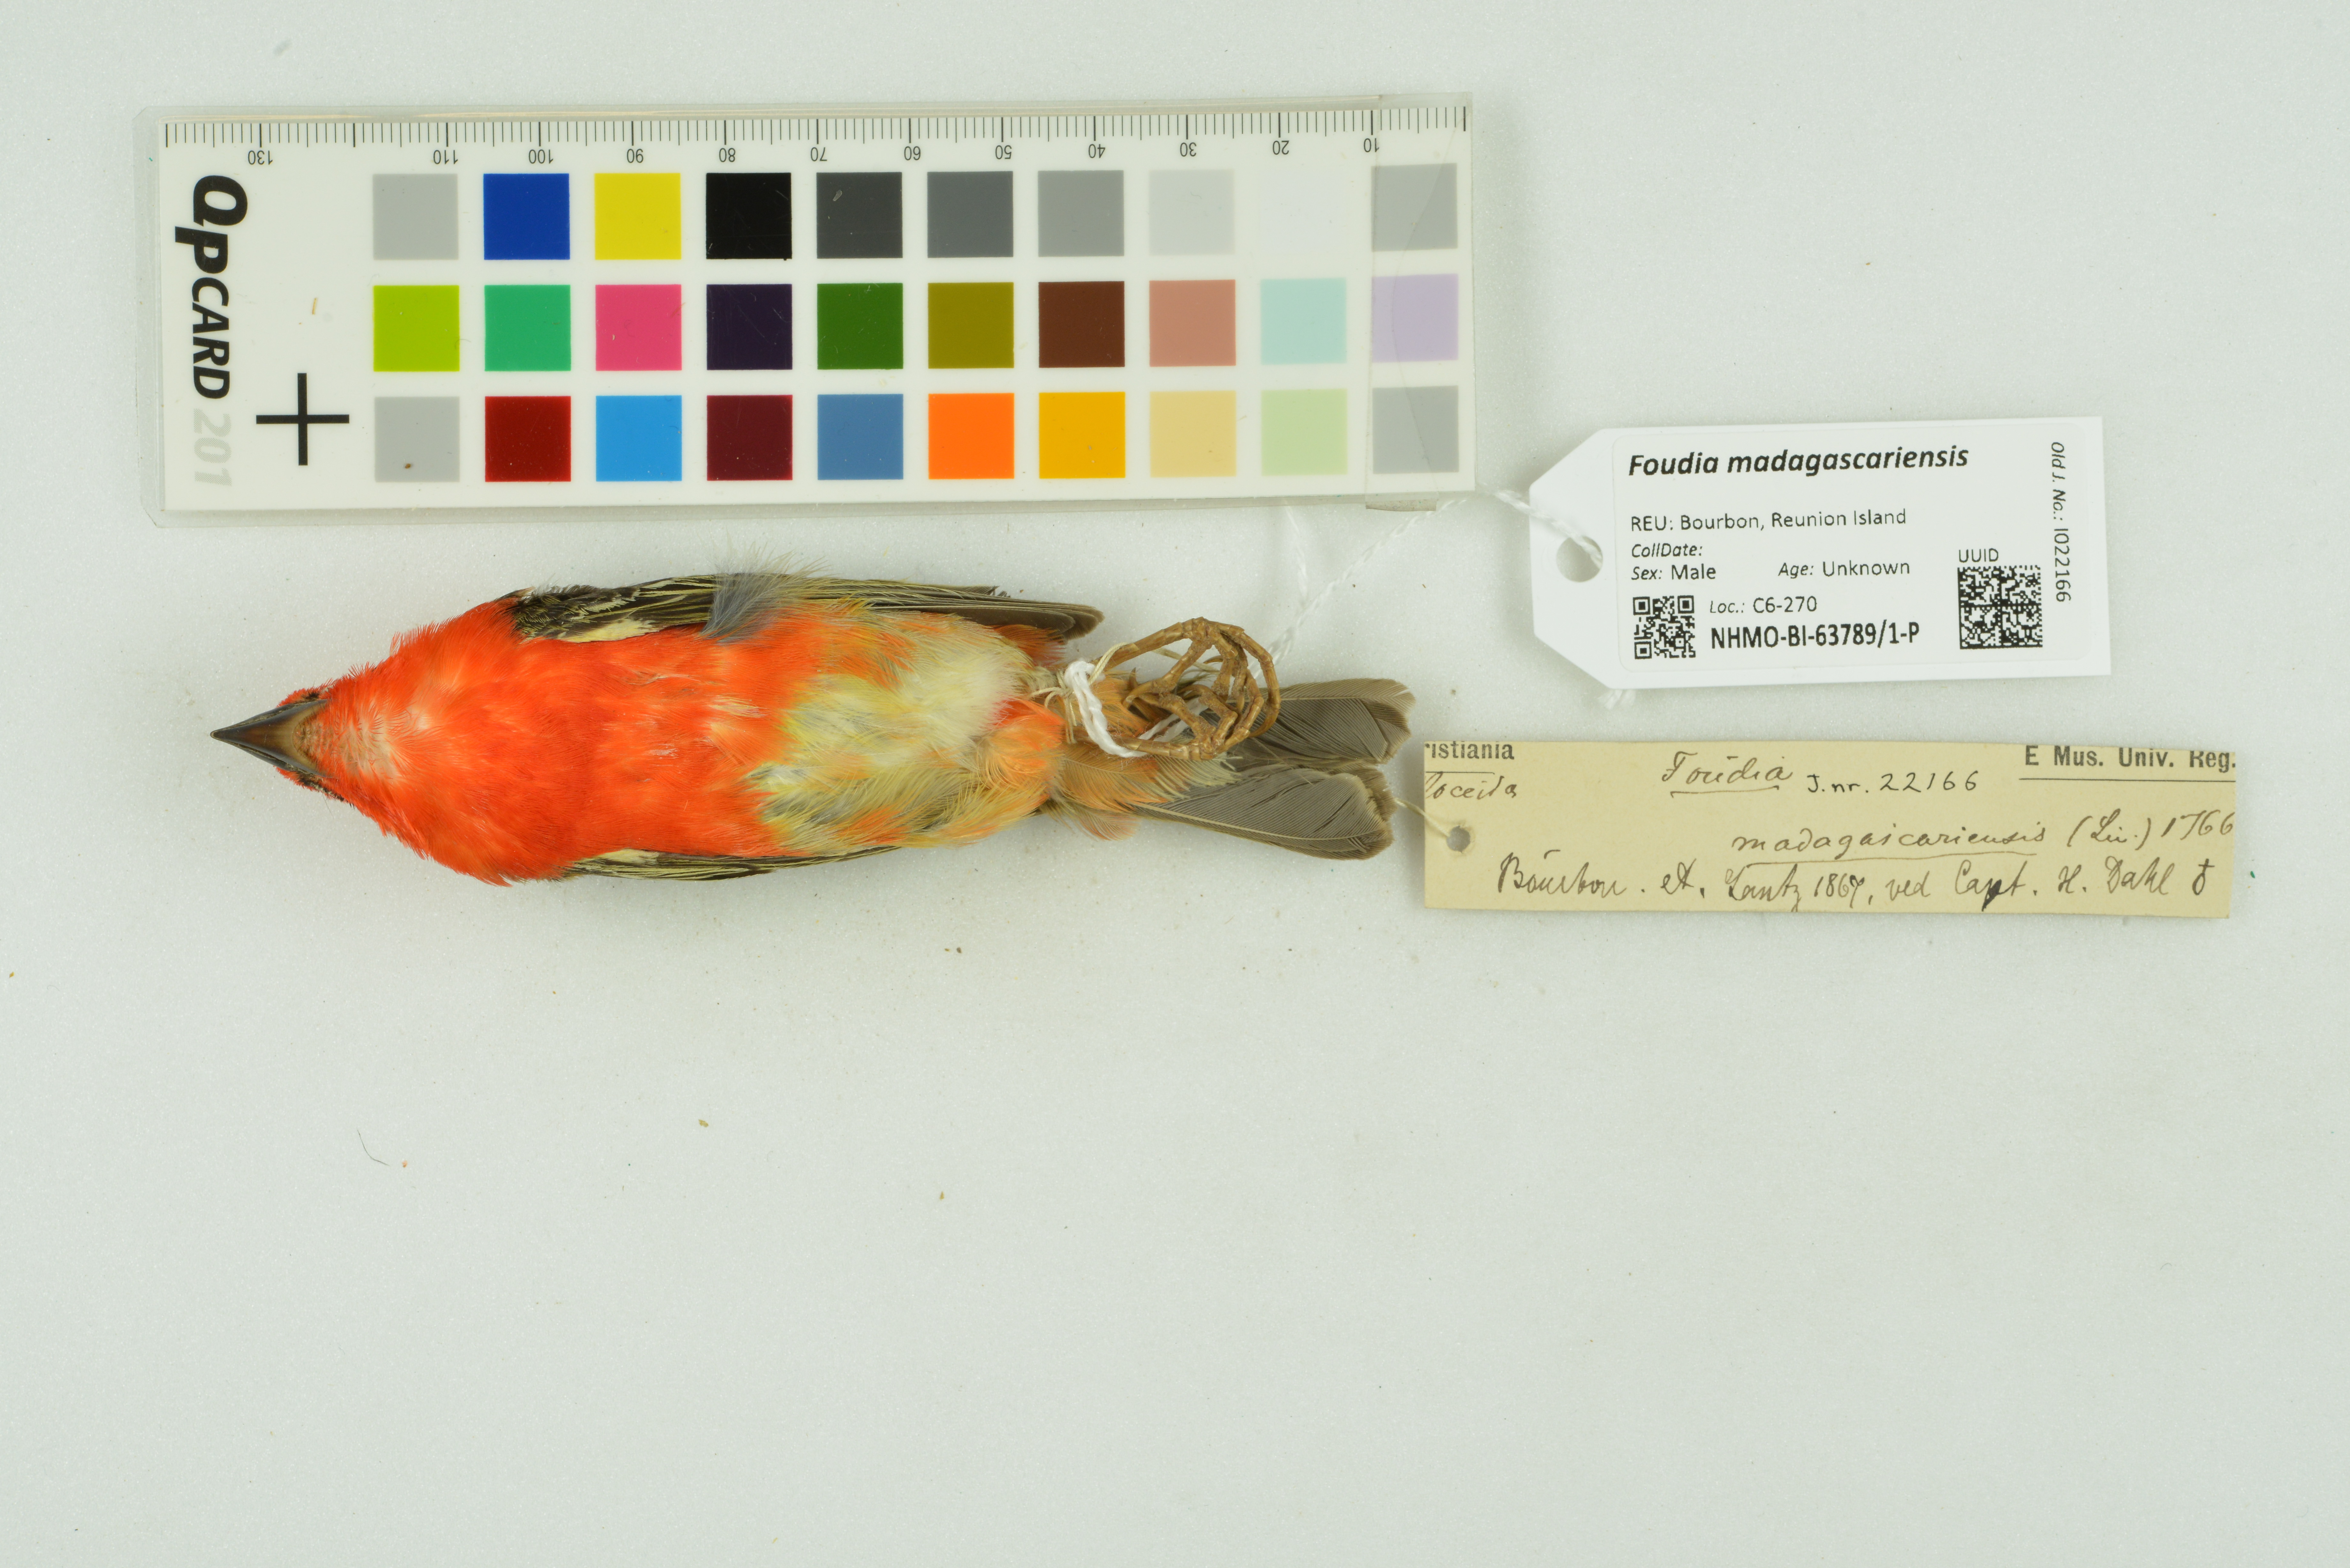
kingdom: Animalia
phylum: Chordata
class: Aves
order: Passeriformes
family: Ploceidae
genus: Foudia
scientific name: Foudia madagascariensis
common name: Red fody
